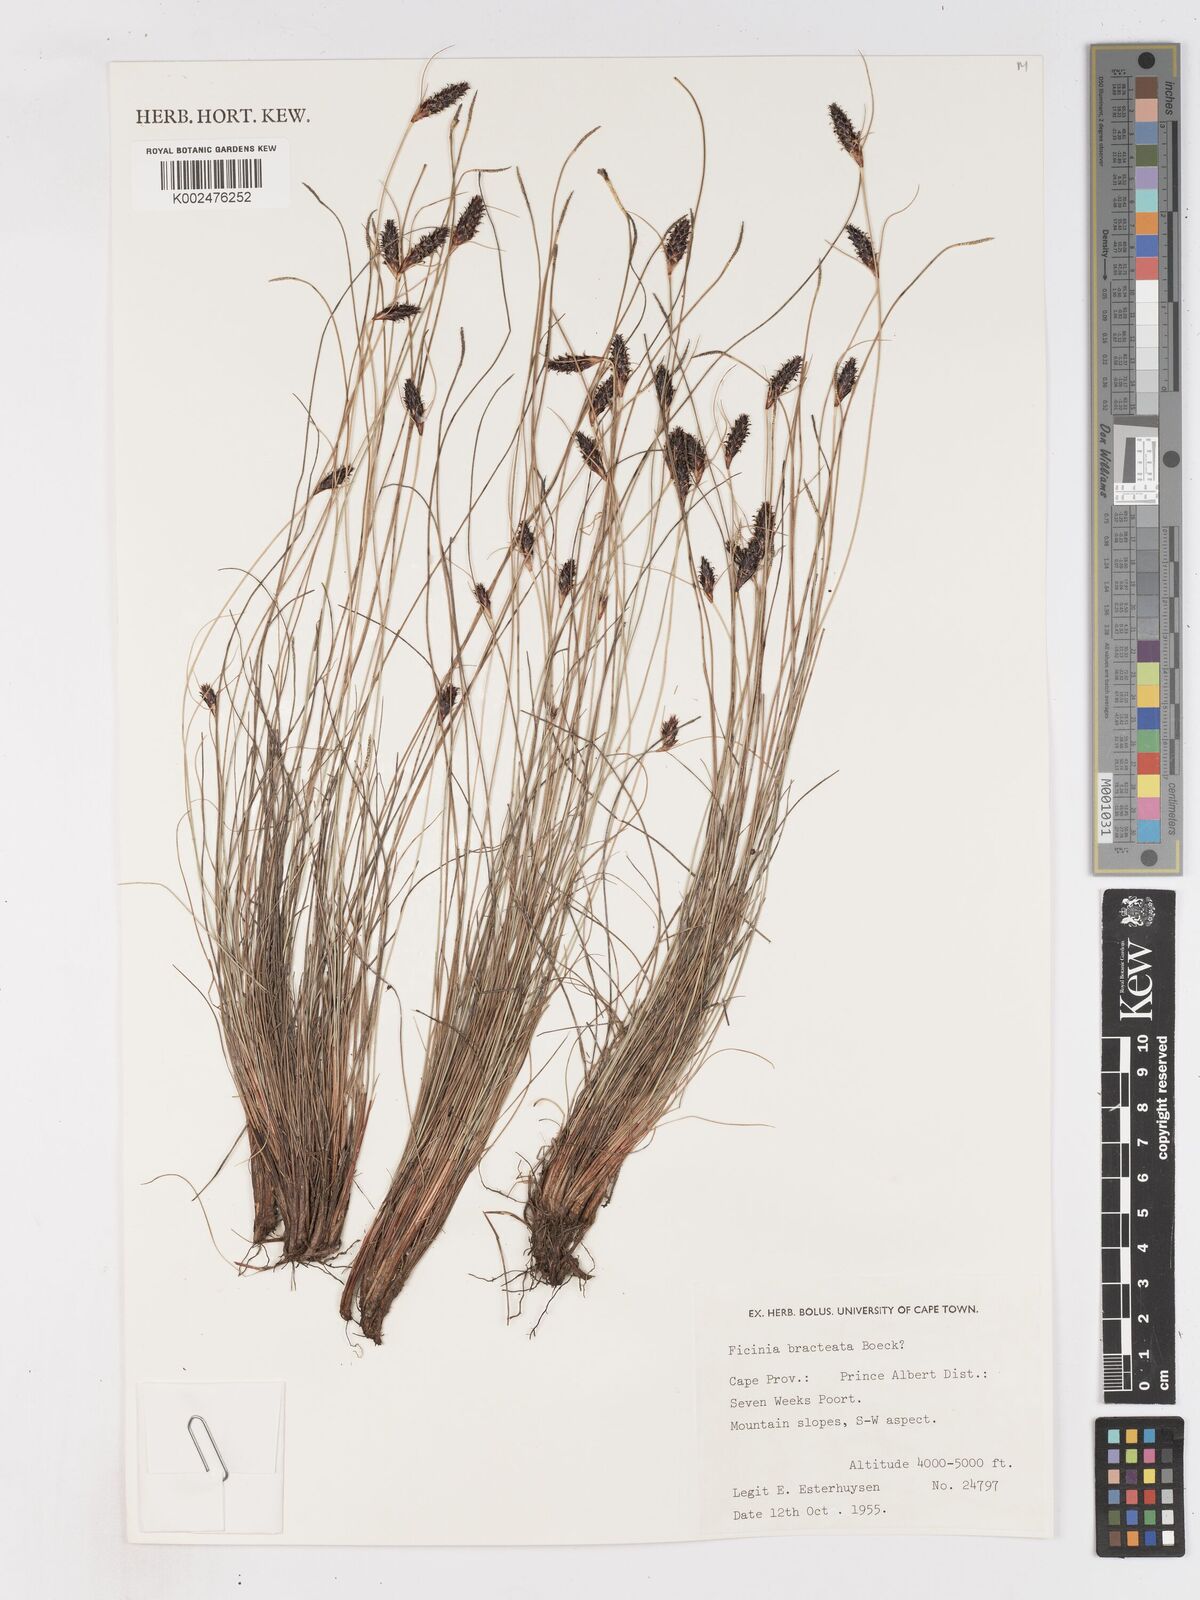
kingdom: Plantae
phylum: Tracheophyta
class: Liliopsida
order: Poales
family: Cyperaceae
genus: Ficinia
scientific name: Ficinia nigrescens
